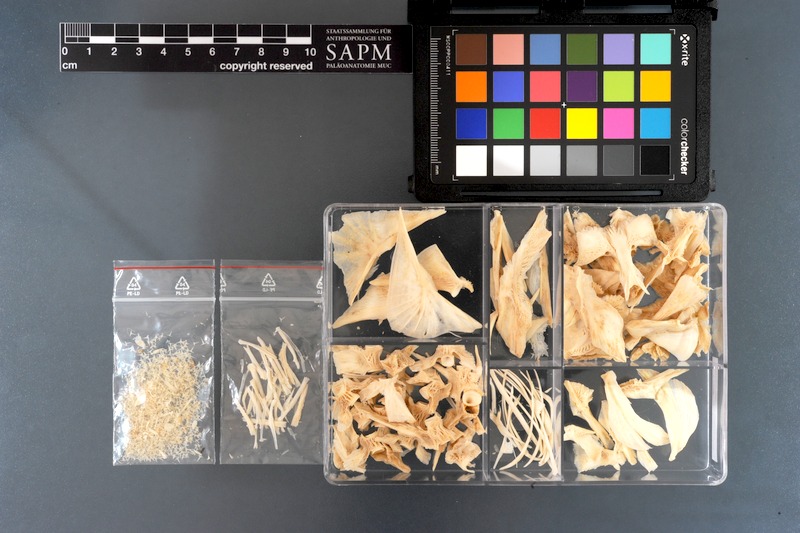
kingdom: Animalia
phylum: Chordata
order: Tetraodontiformes
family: Tetraodontidae
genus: Arothron
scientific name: Arothron immaculatus
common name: Blackedged blaasop
